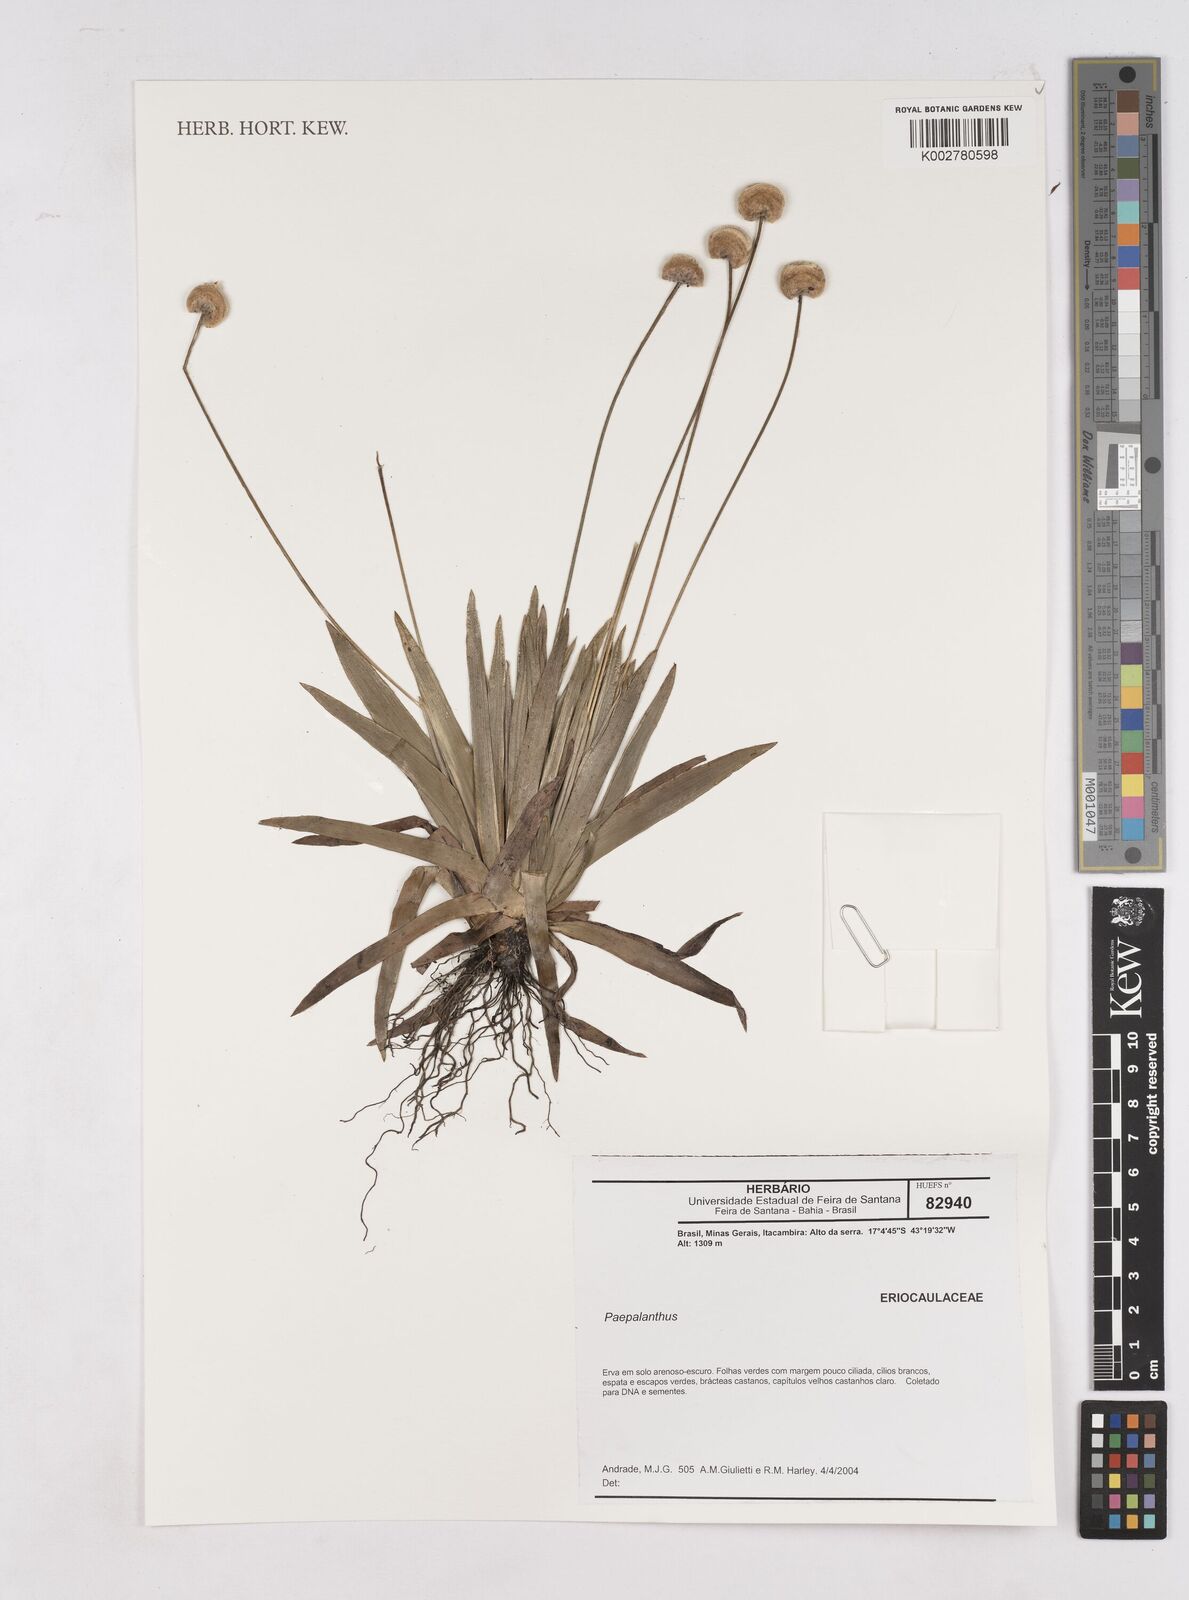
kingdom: Plantae
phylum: Tracheophyta
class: Liliopsida
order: Poales
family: Eriocaulaceae
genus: Paepalanthus
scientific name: Paepalanthus
